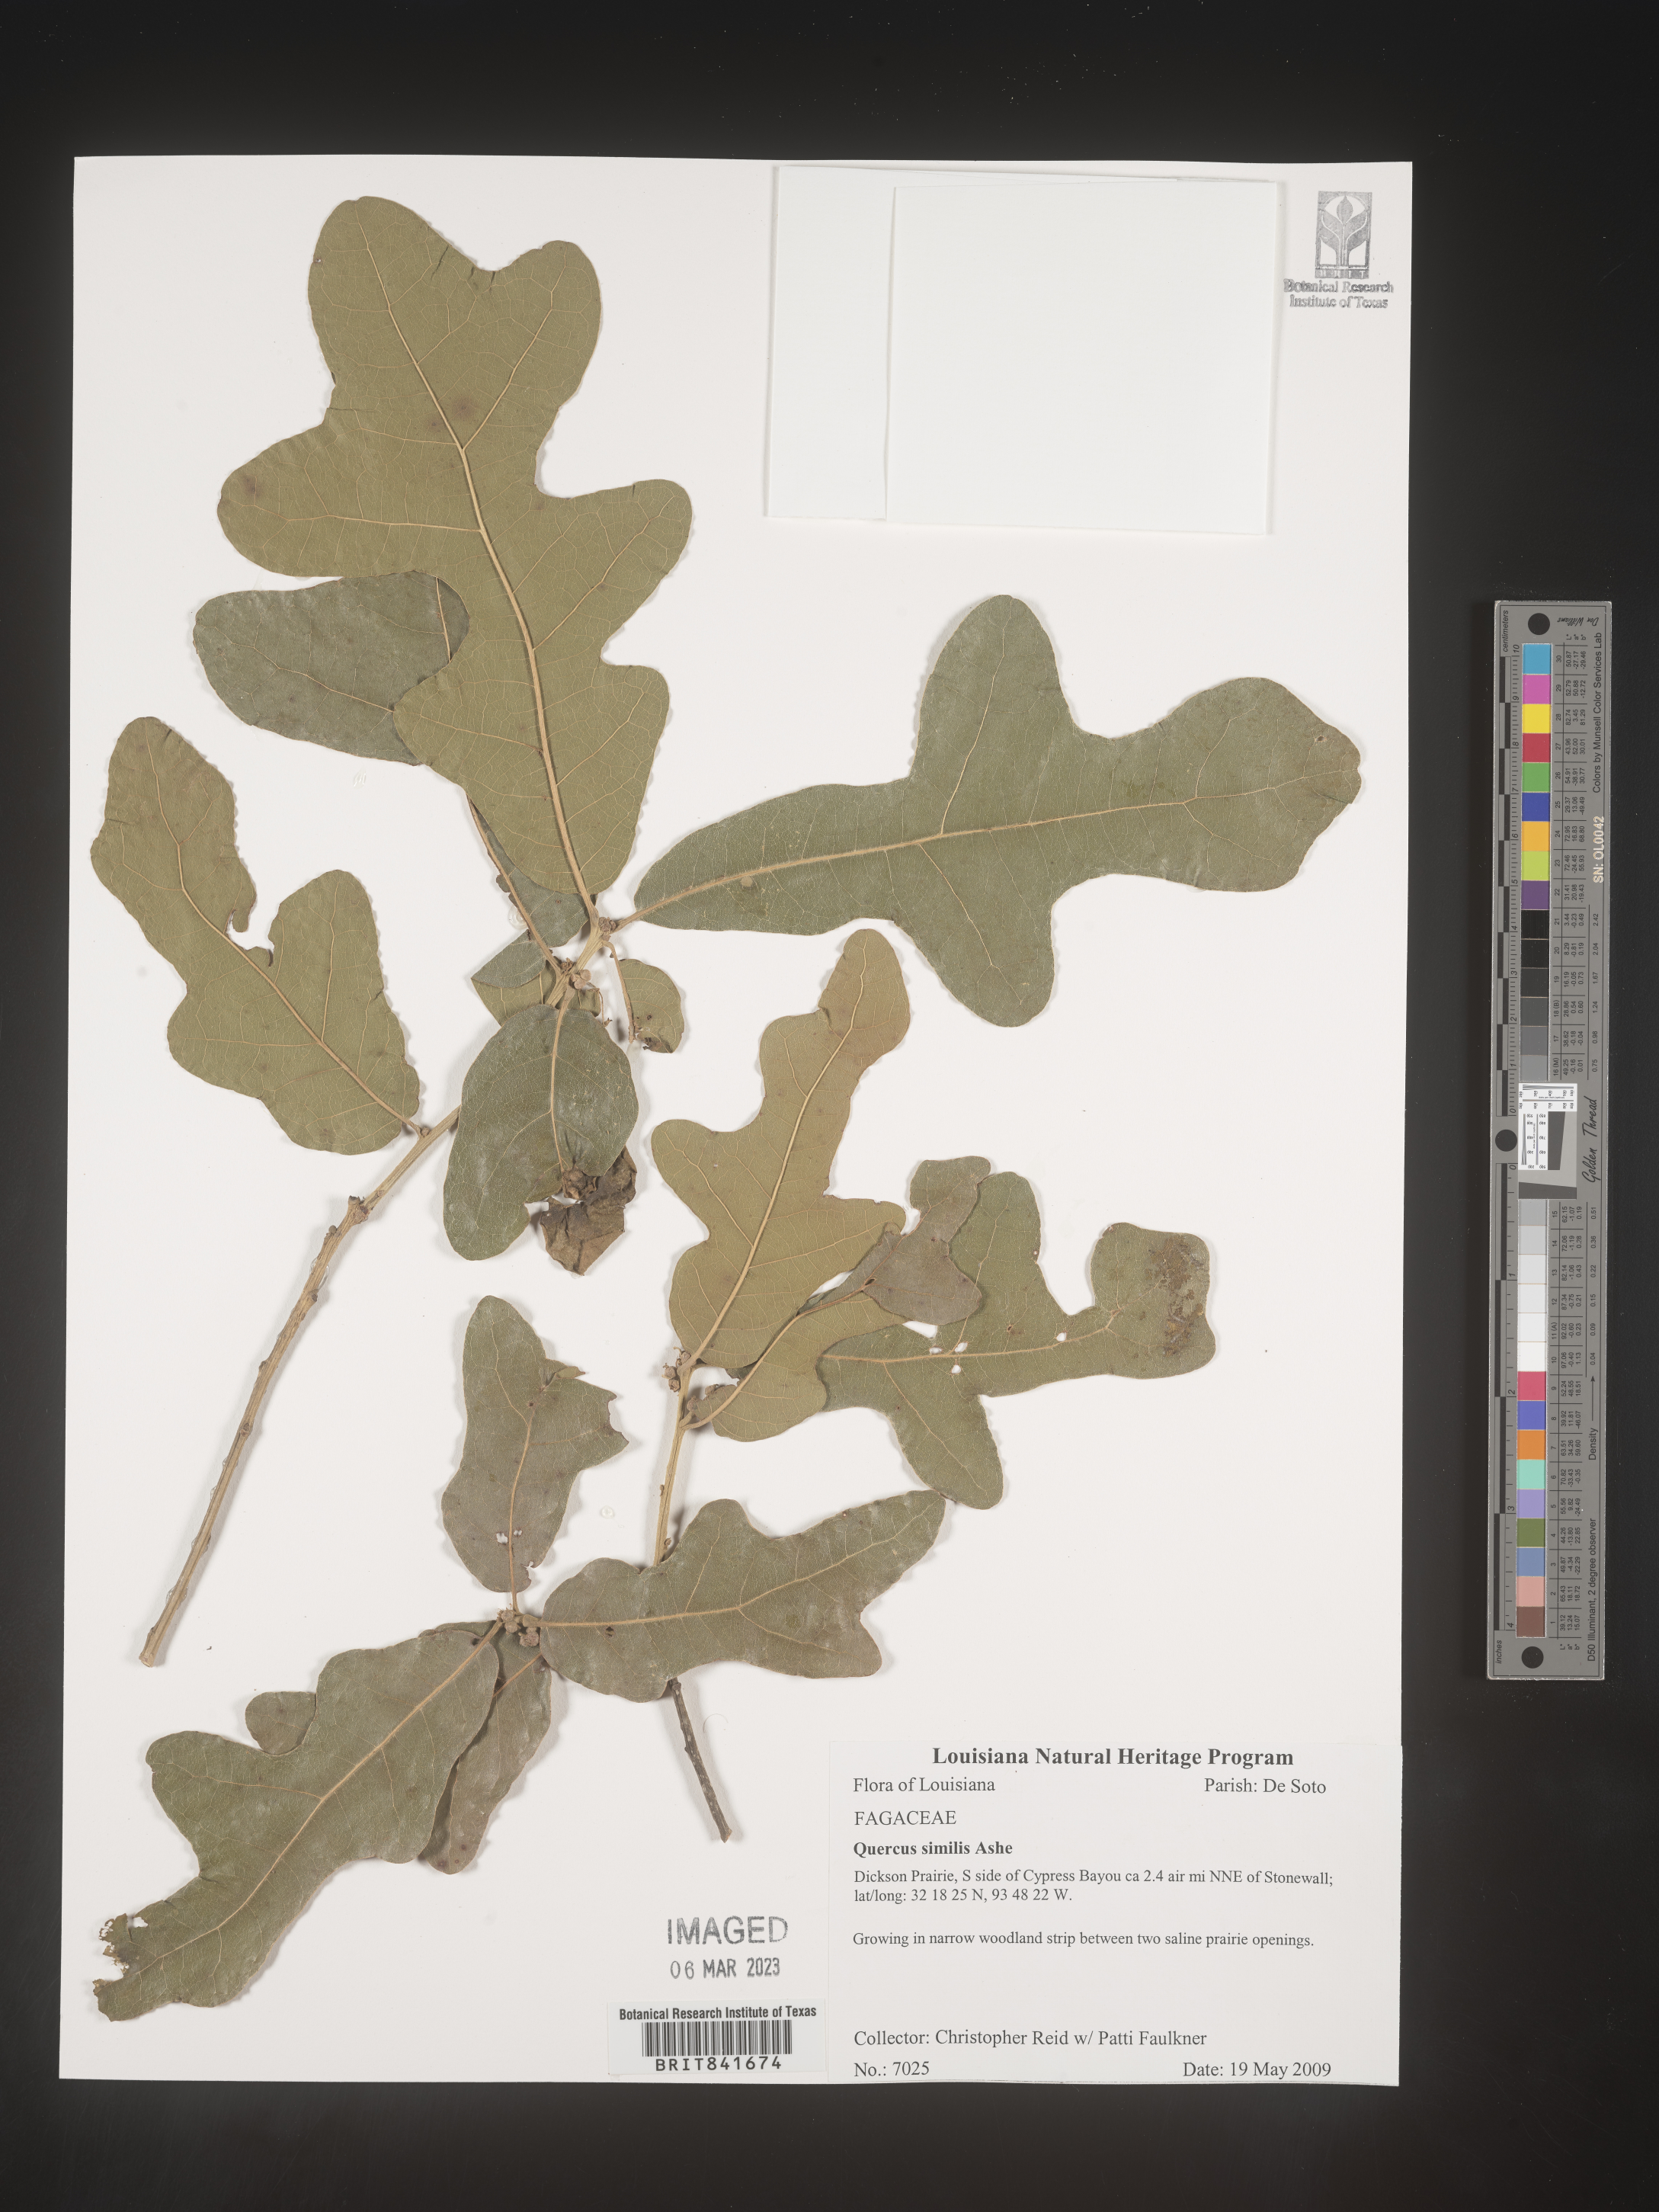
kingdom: Plantae
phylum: Tracheophyta
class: Magnoliopsida
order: Fagales
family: Fagaceae
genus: Quercus
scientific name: Quercus
